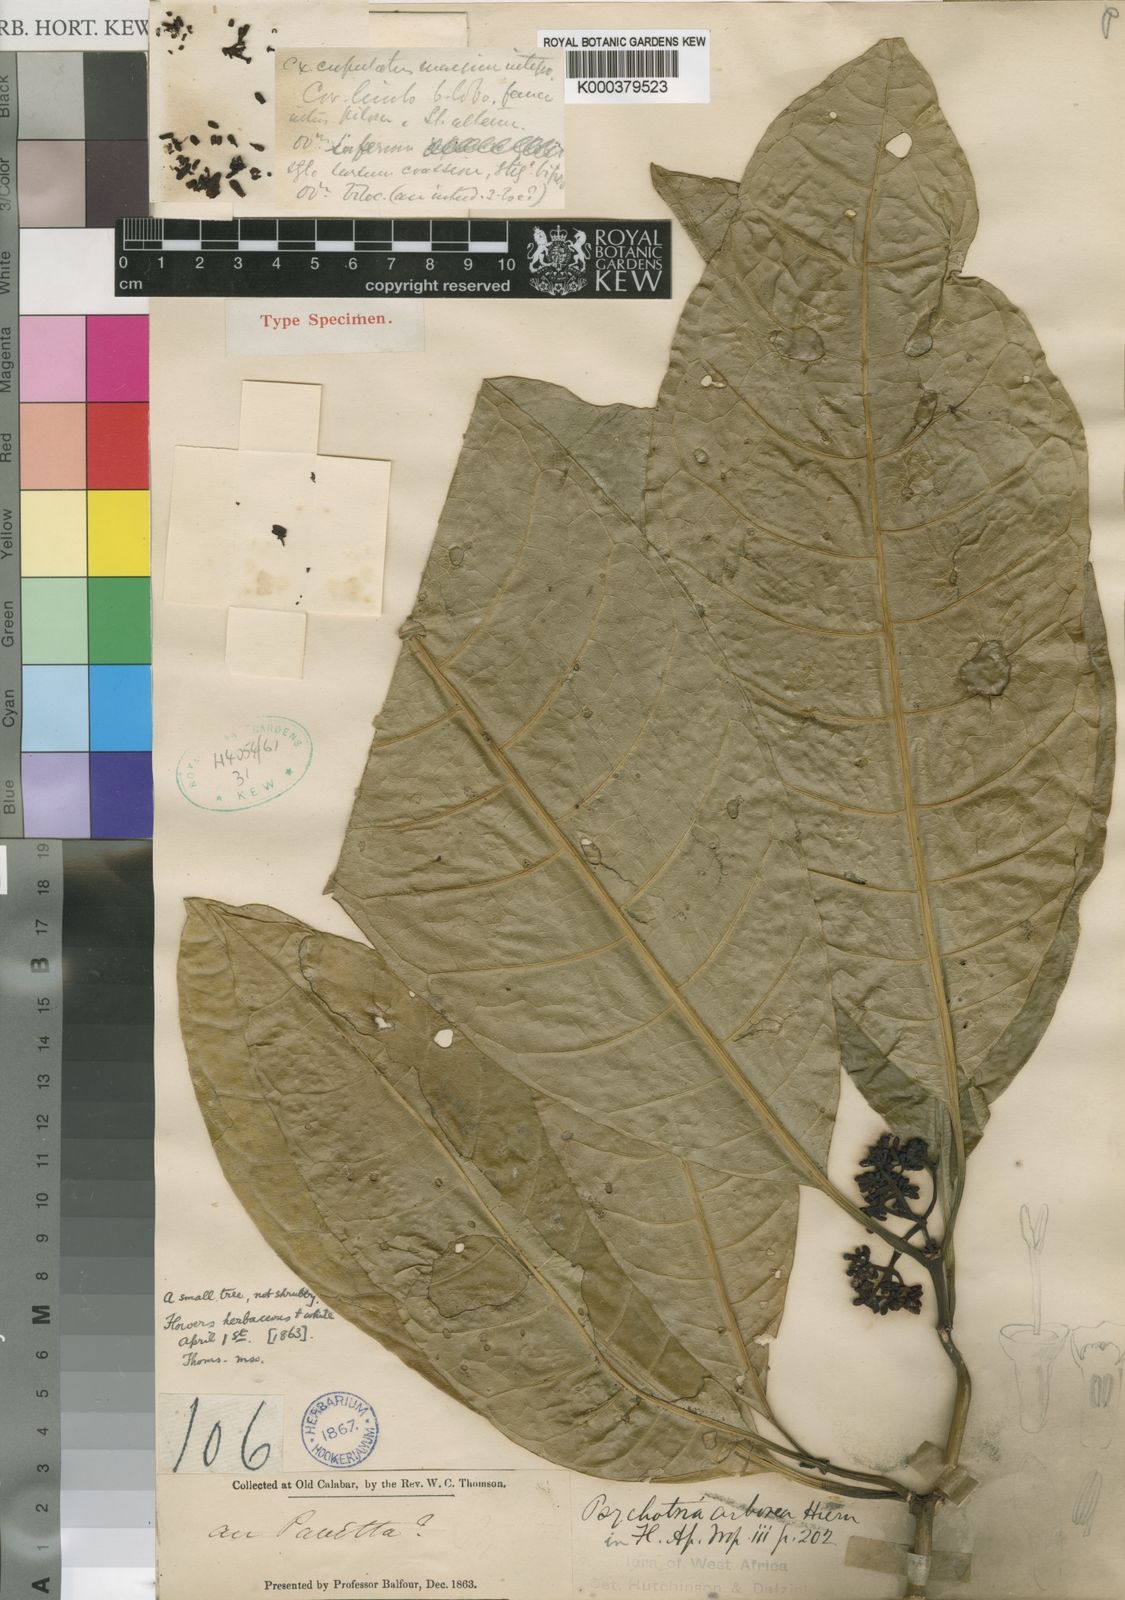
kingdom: Plantae
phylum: Tracheophyta
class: Magnoliopsida
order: Gentianales
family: Rubiaceae
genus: Psychotria
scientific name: Psychotria arborea
